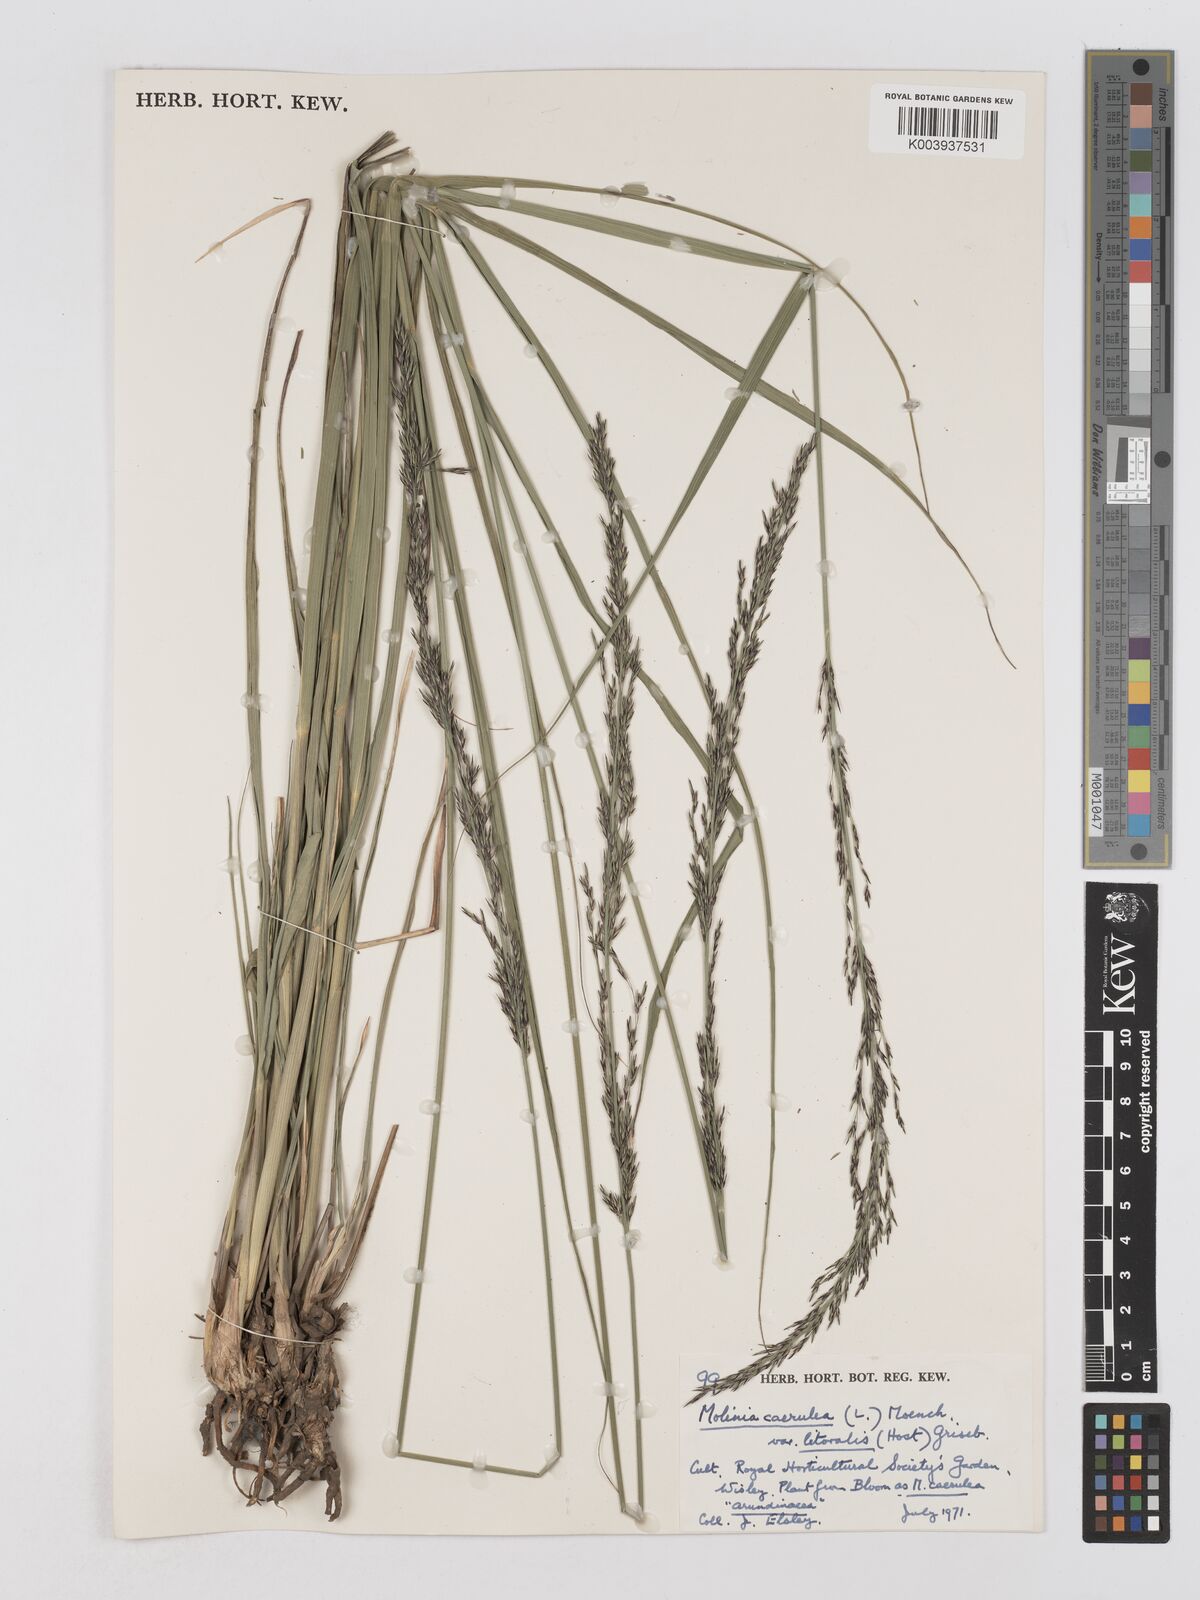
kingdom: Plantae
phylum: Tracheophyta
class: Liliopsida
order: Poales
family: Poaceae
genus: Molinia
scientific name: Molinia caerulea
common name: Purple moor-grass
